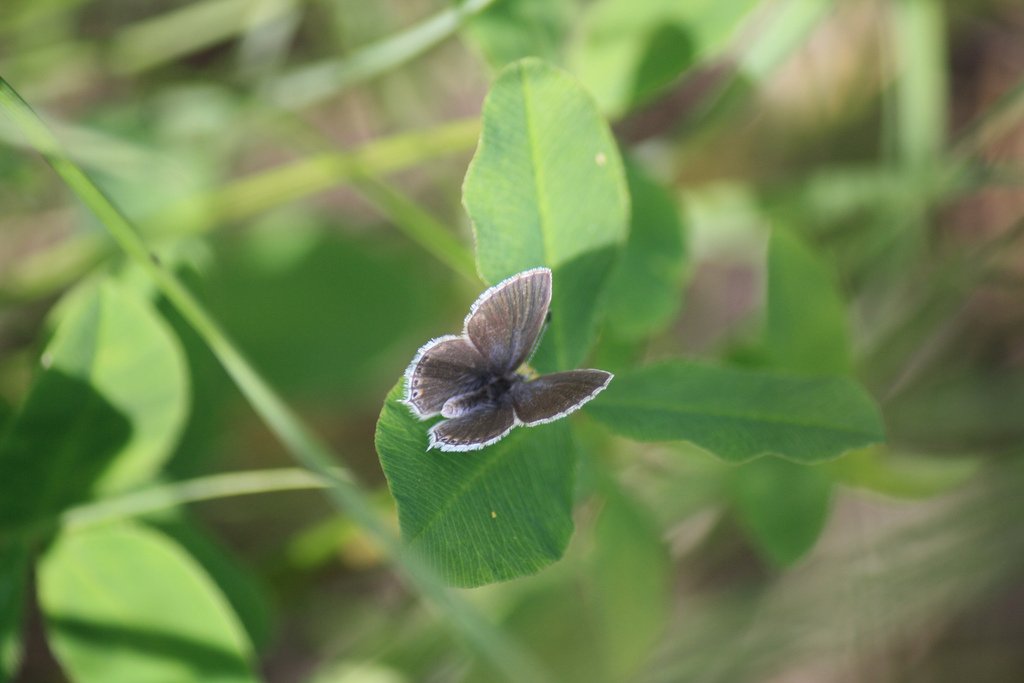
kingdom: Animalia
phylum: Arthropoda
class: Insecta
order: Lepidoptera
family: Lycaenidae
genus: Elkalyce
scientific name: Elkalyce amyntula
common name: Western Tailed-Blue
